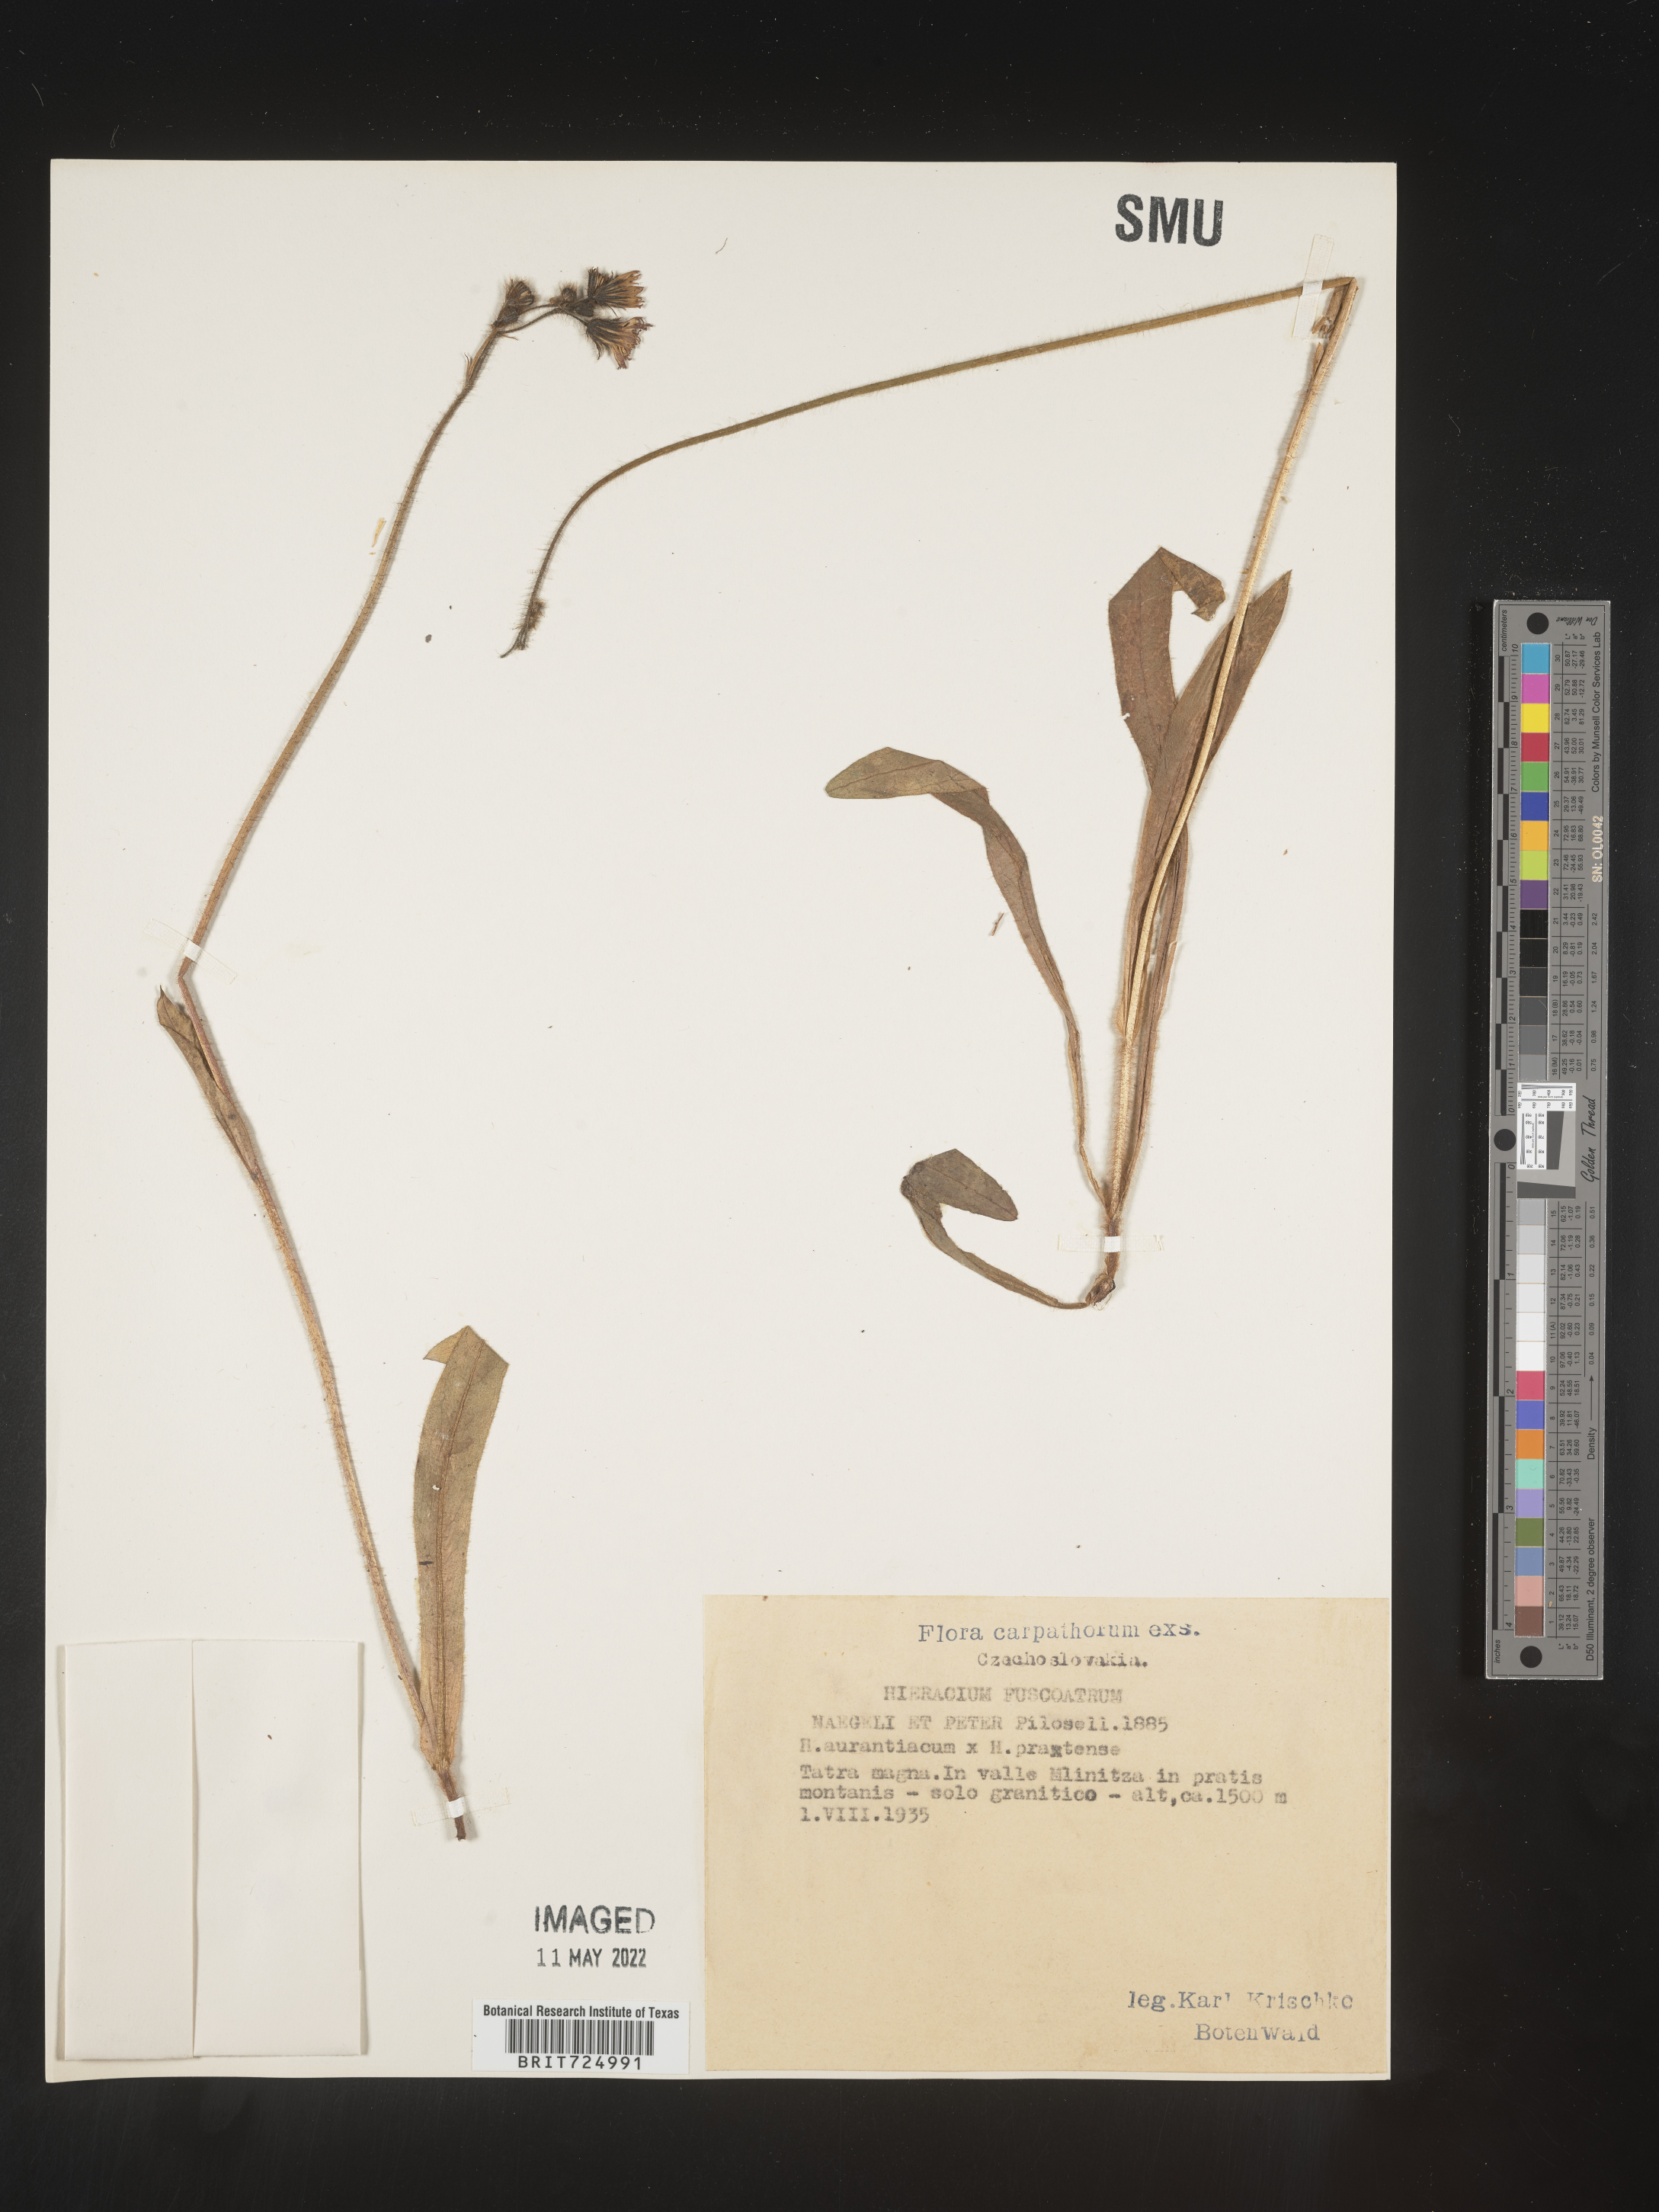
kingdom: Plantae
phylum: Tracheophyta
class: Magnoliopsida
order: Asterales
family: Asteraceae
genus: Hieracium
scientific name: Hieracium
